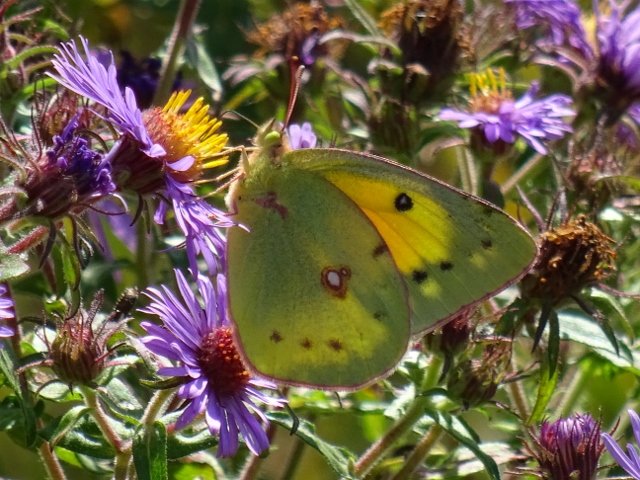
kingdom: Animalia
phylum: Arthropoda
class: Insecta
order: Lepidoptera
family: Pieridae
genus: Colias
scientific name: Colias eurytheme
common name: Orange Sulphur
